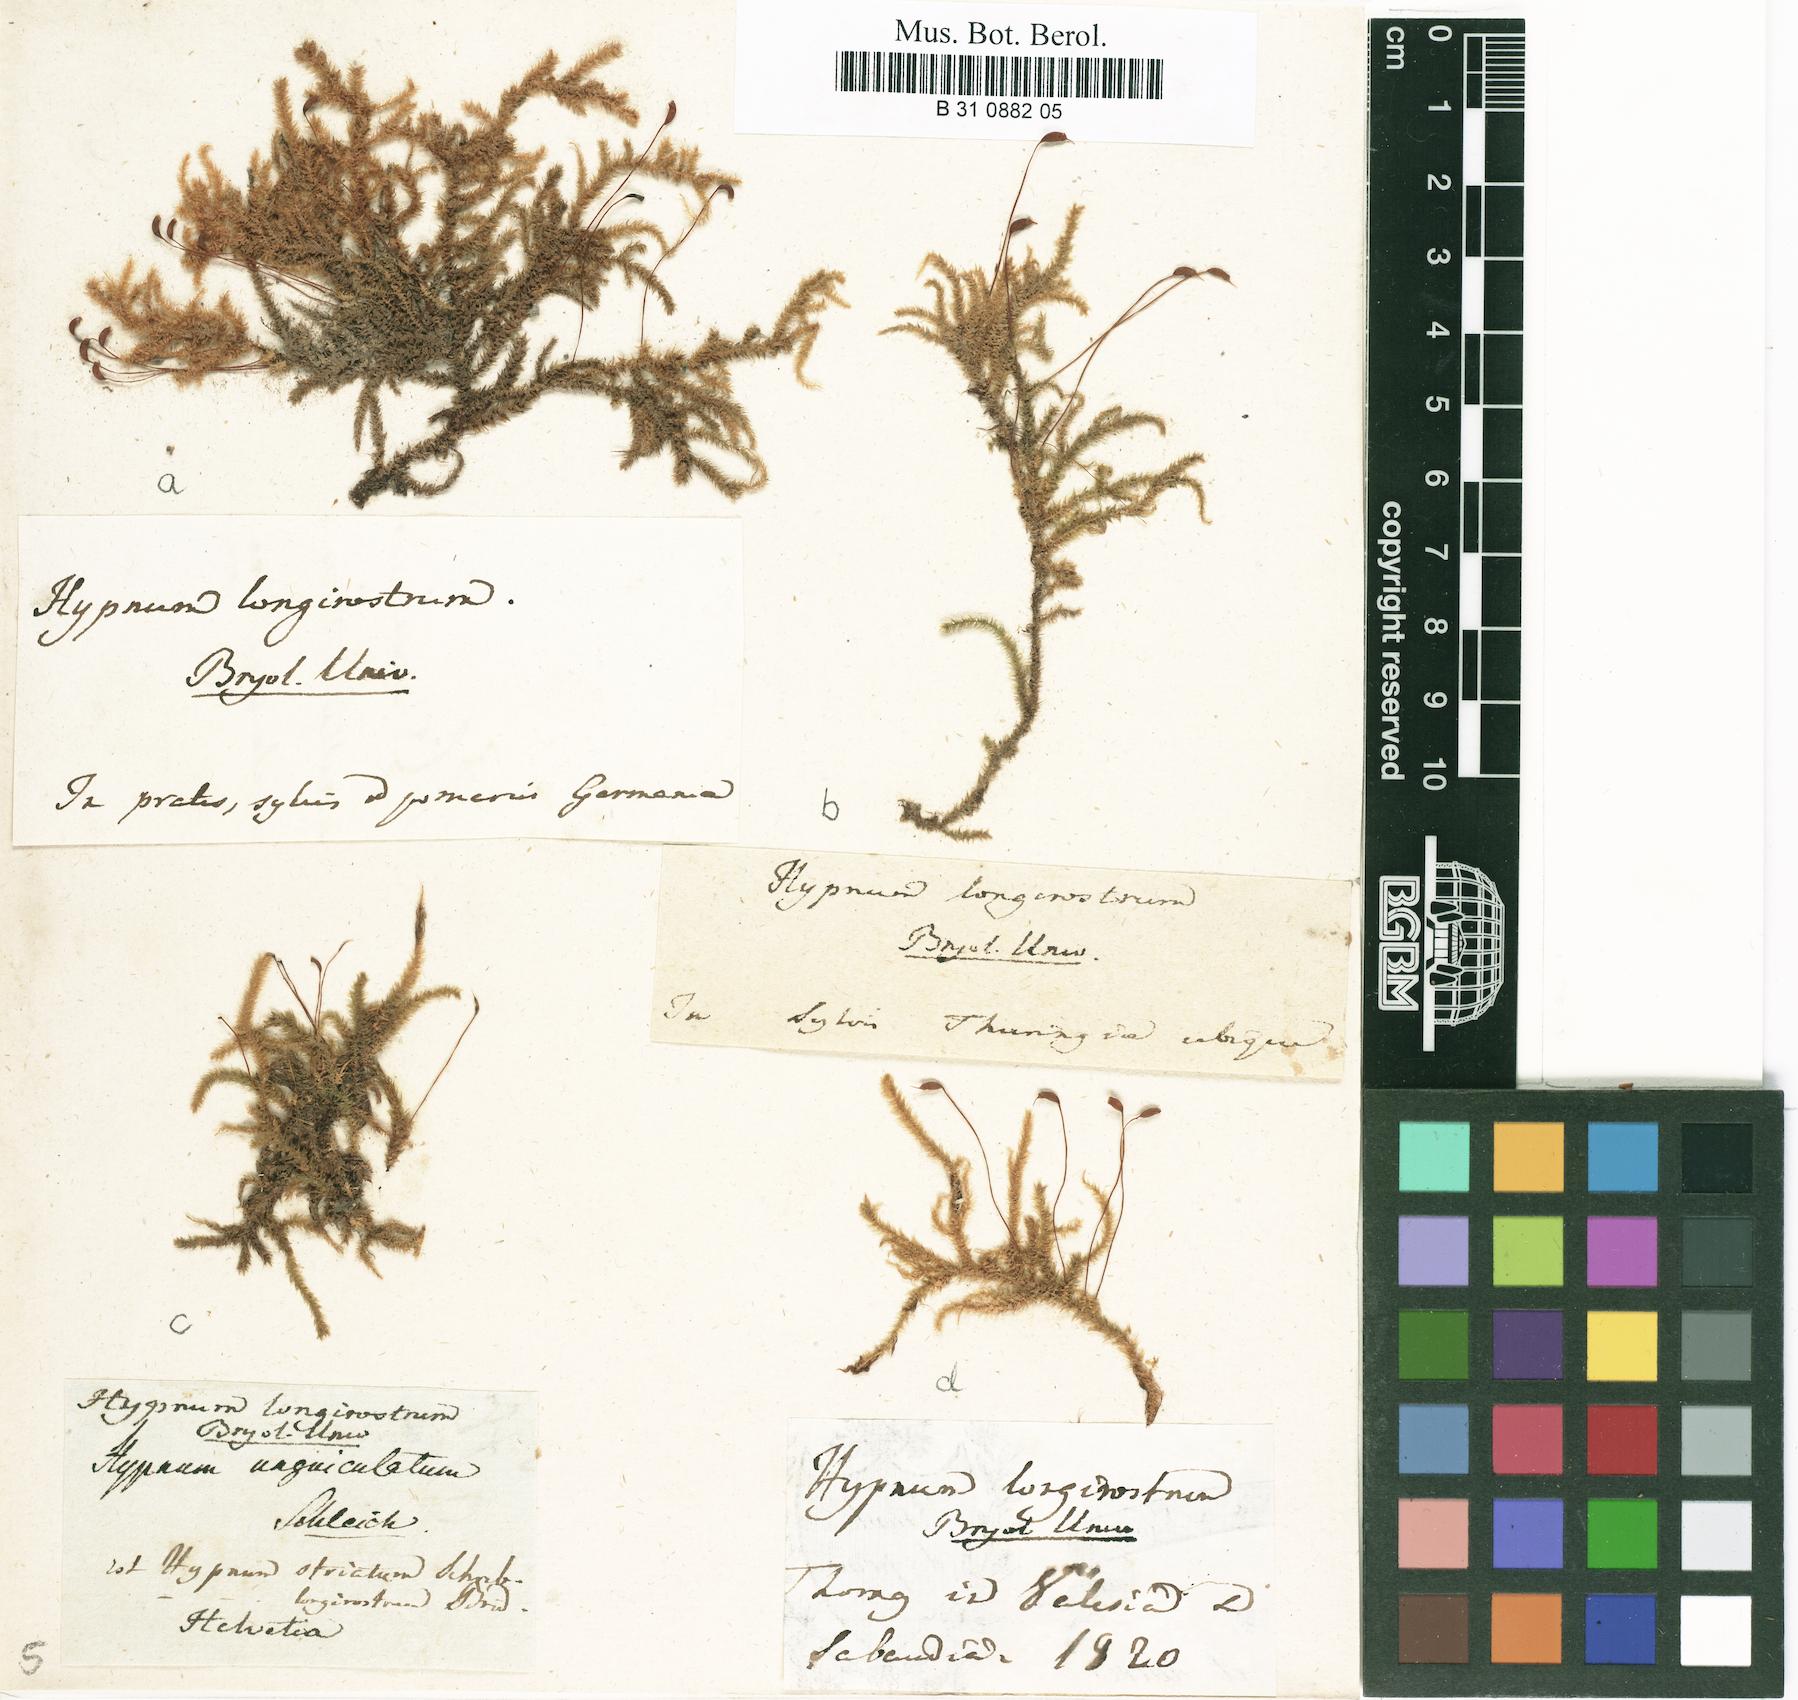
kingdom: Plantae
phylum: Bryophyta
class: Bryopsida
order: Hypnales
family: Brachytheciaceae
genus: Eurhynchium
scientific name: Eurhynchium striatum
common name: Common striated feather-moss
